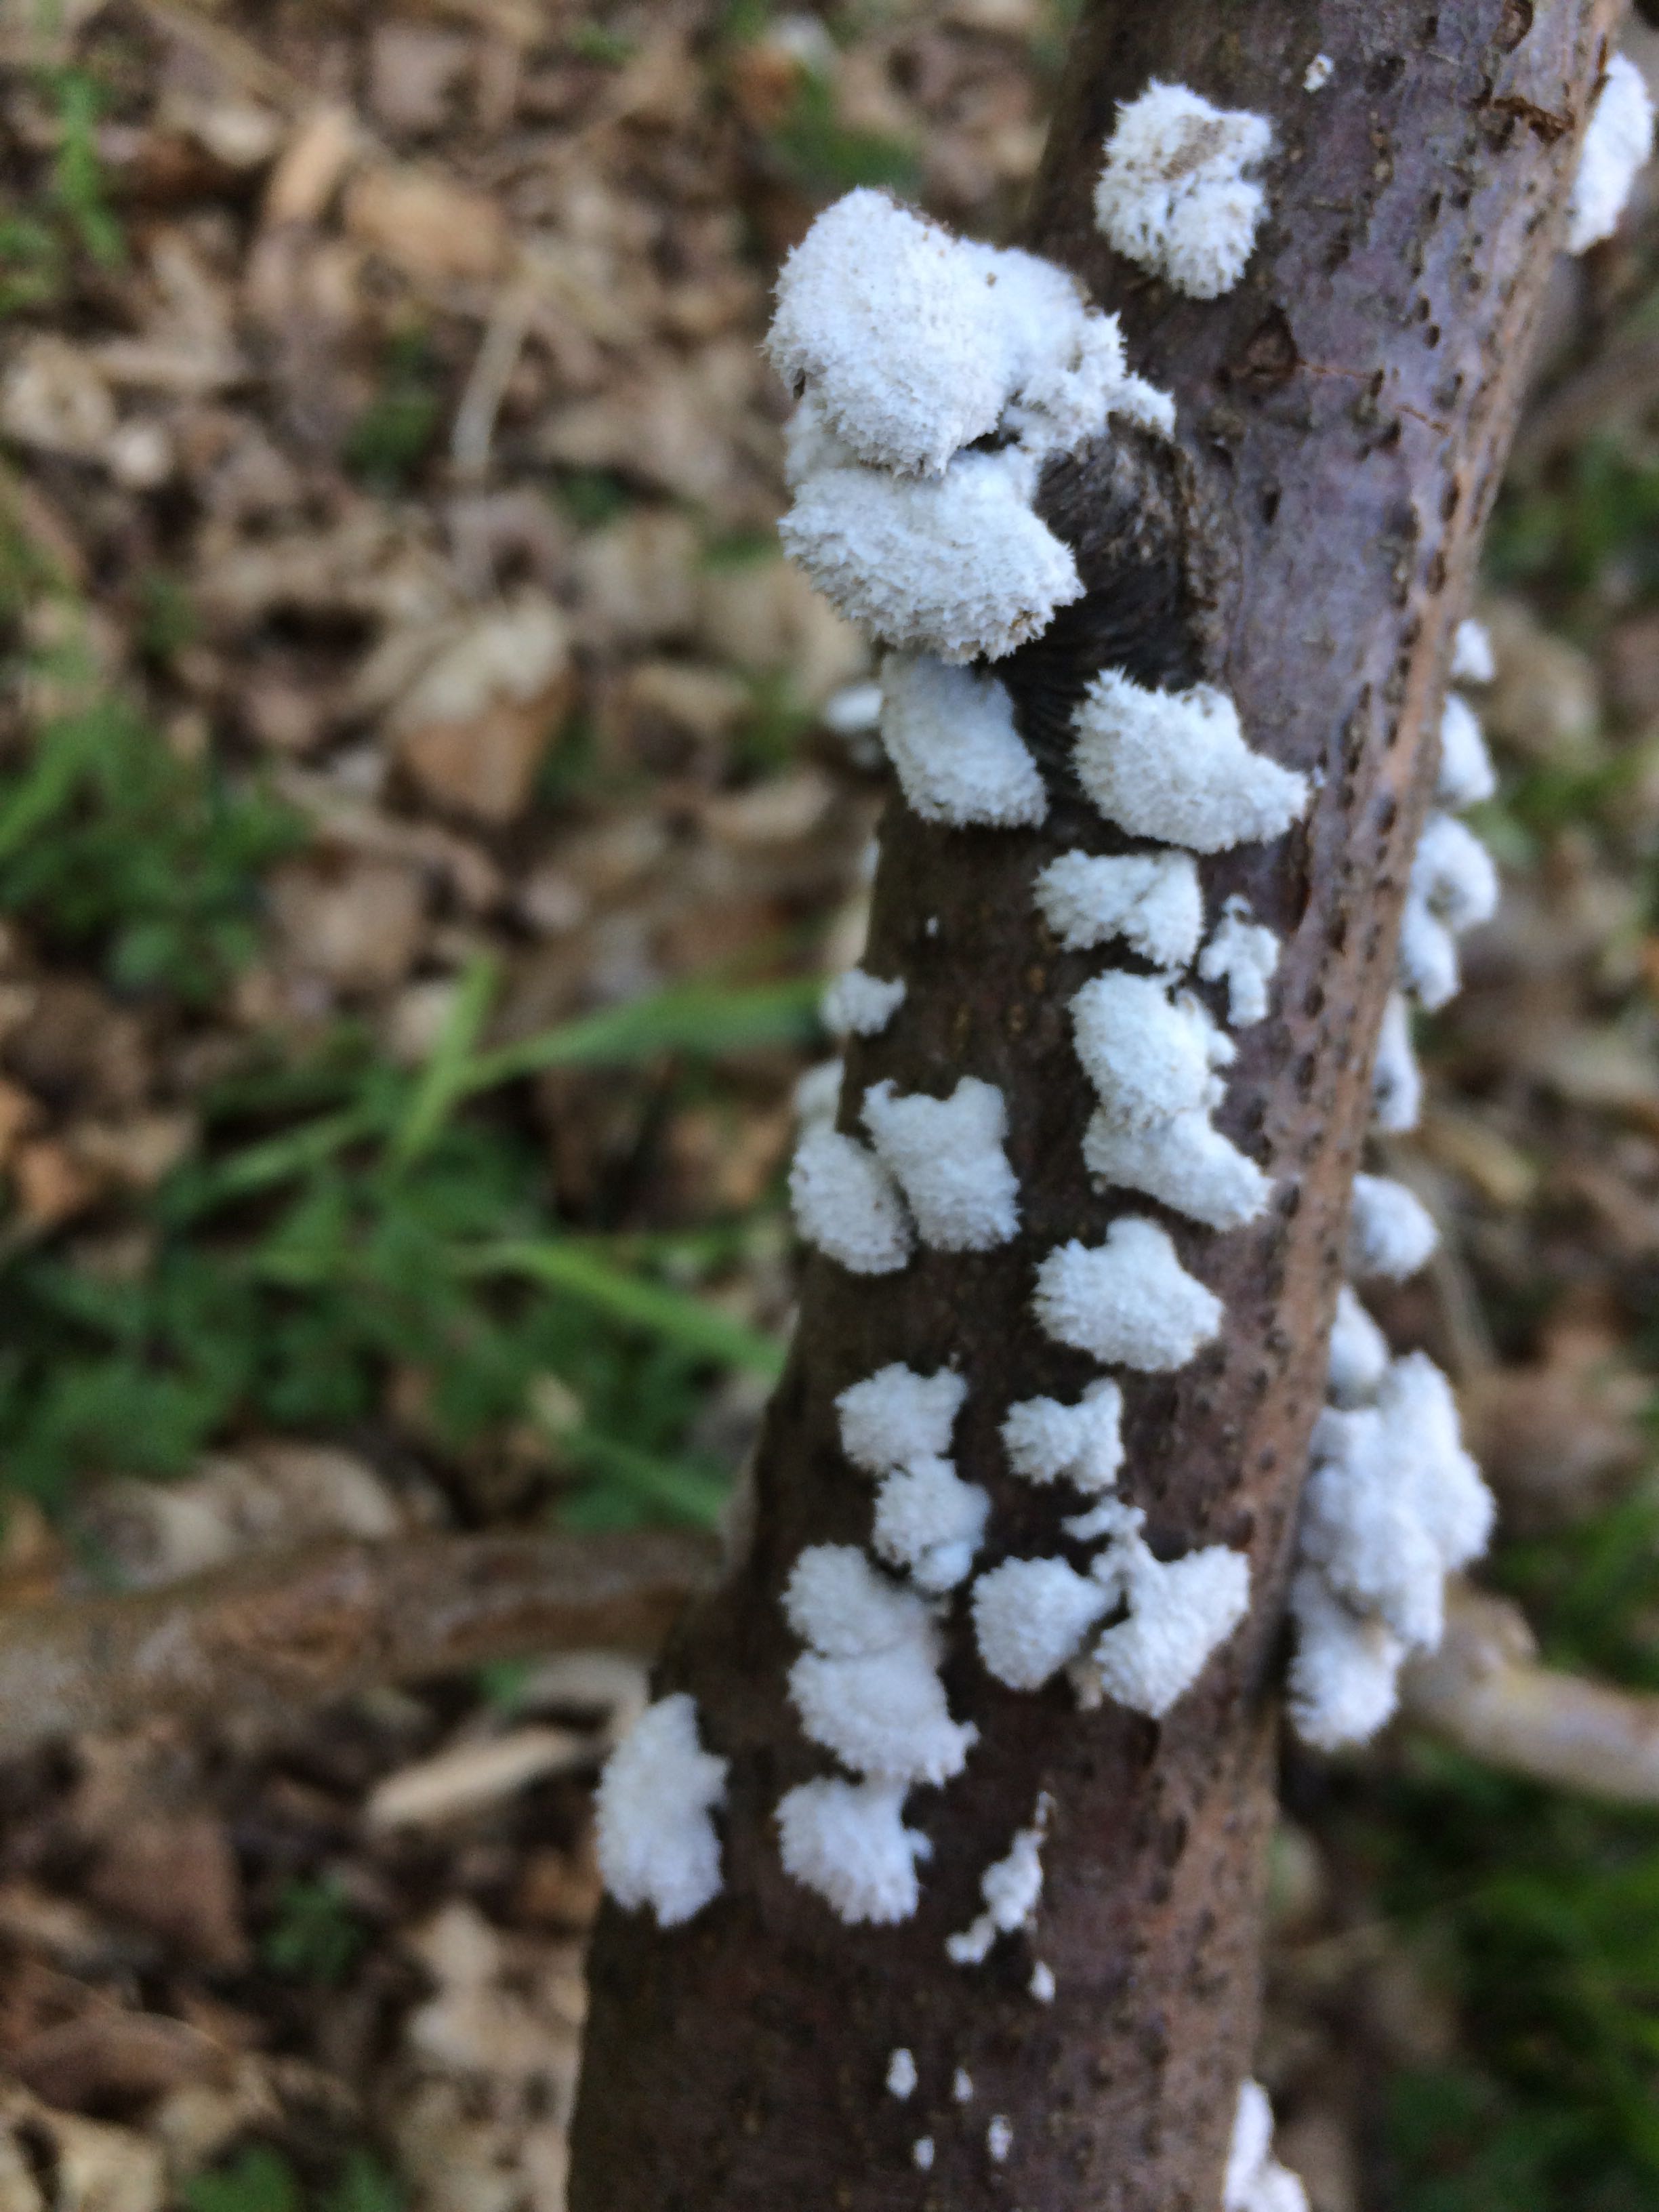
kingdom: Fungi
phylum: Basidiomycota
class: Agaricomycetes
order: Agaricales
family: Schizophyllaceae
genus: Schizophyllum
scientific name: Schizophyllum commune
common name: kløvblad
